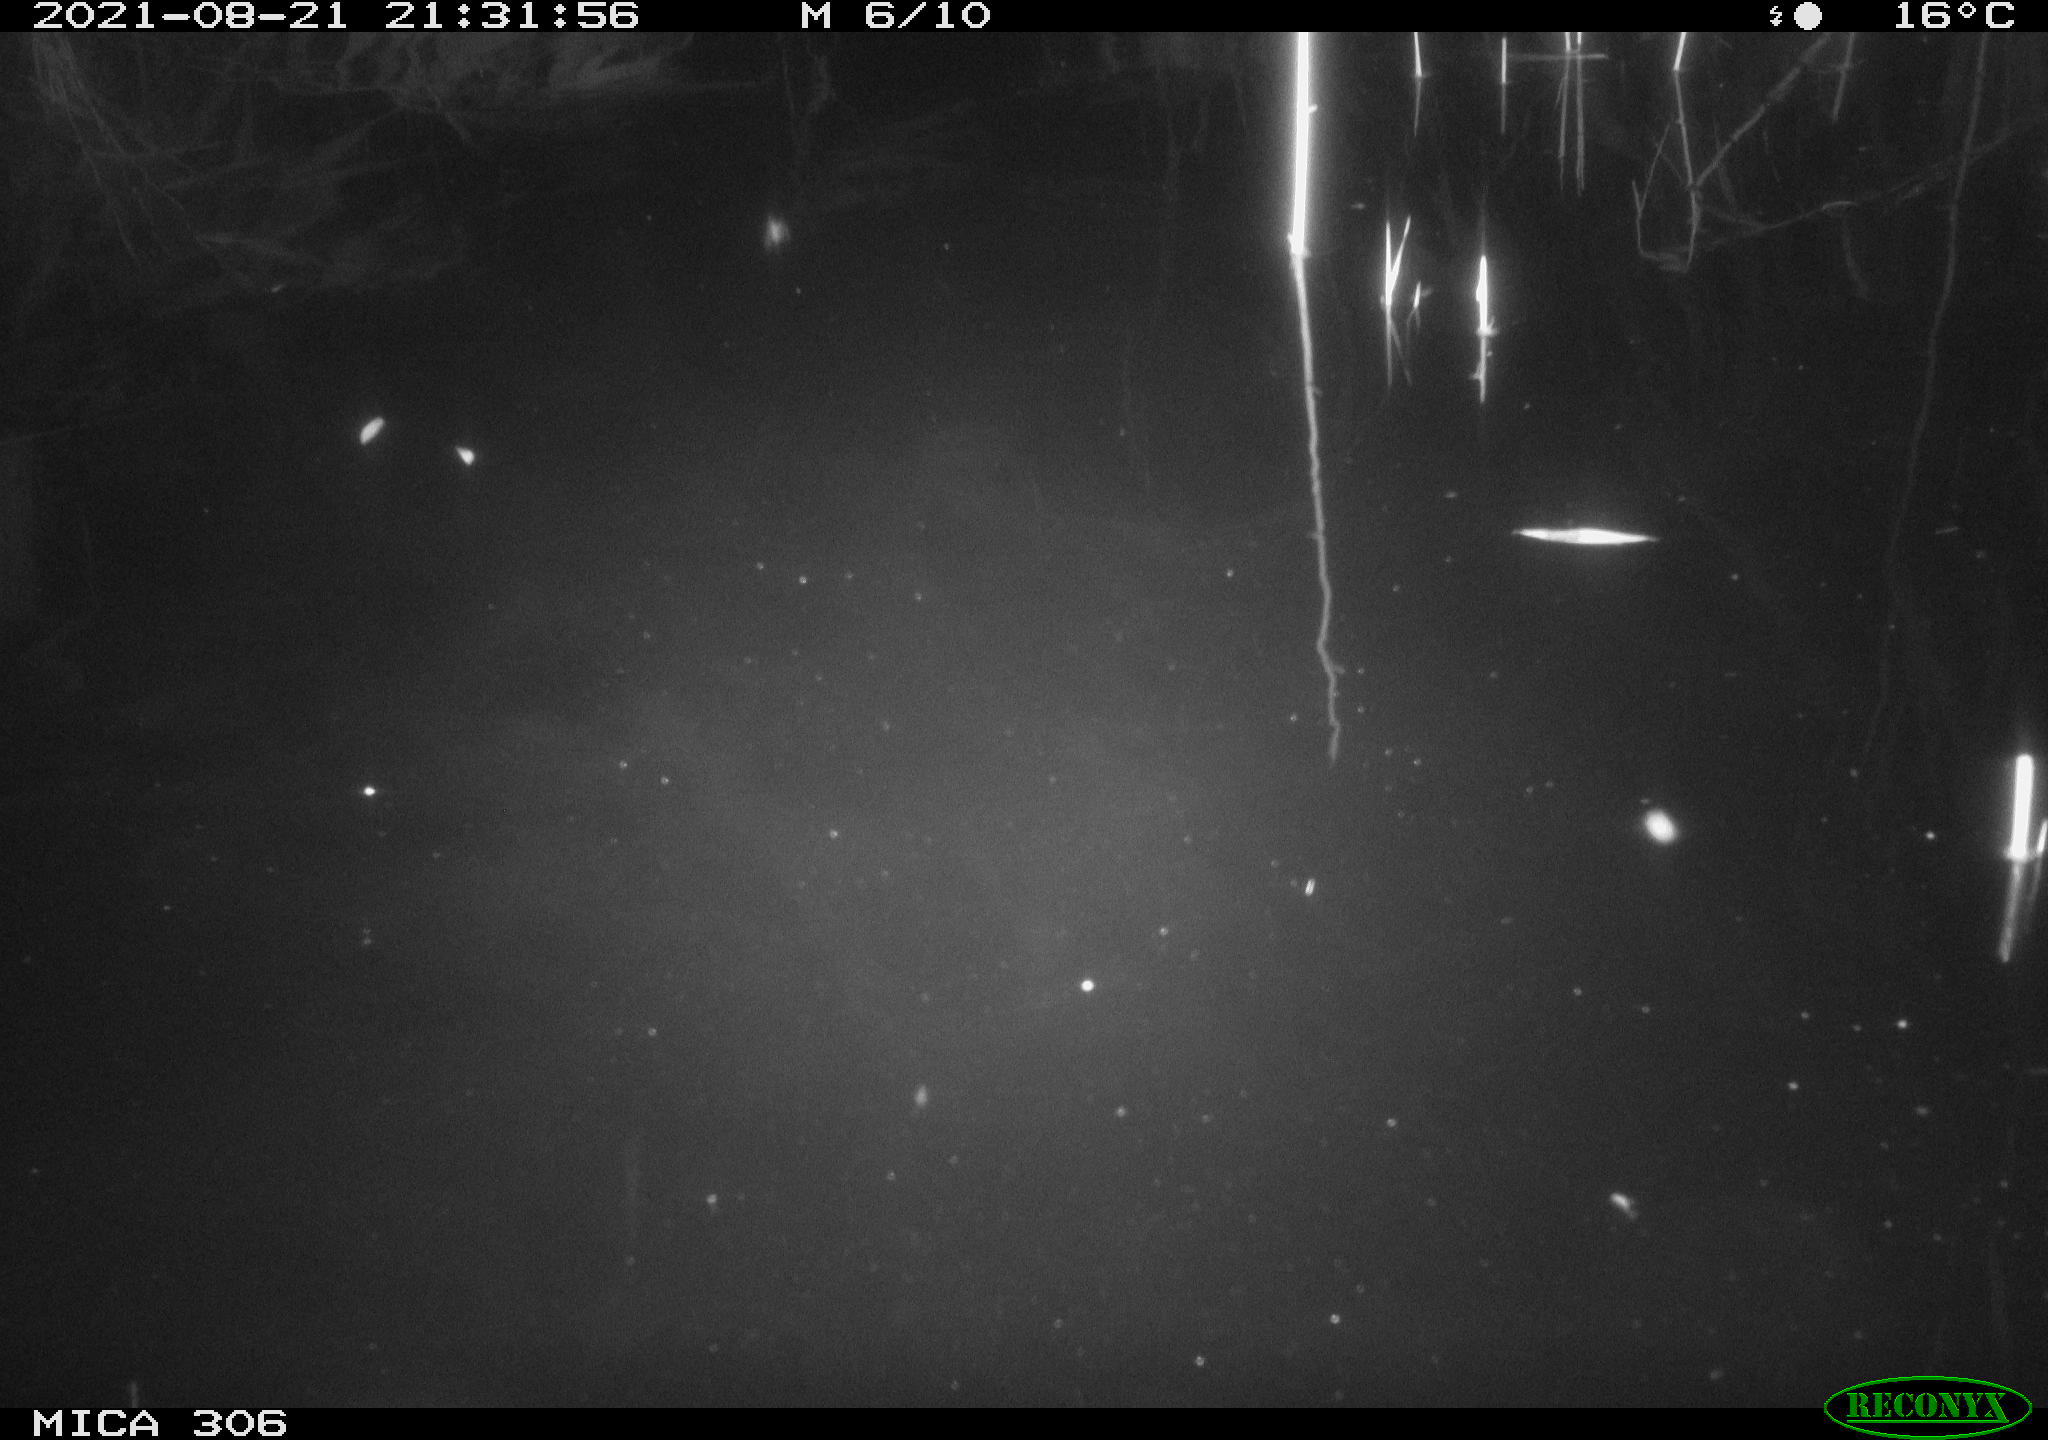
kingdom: Animalia
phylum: Chordata
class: Aves
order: Anseriformes
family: Anatidae
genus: Anas
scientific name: Anas platyrhynchos
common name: Mallard
